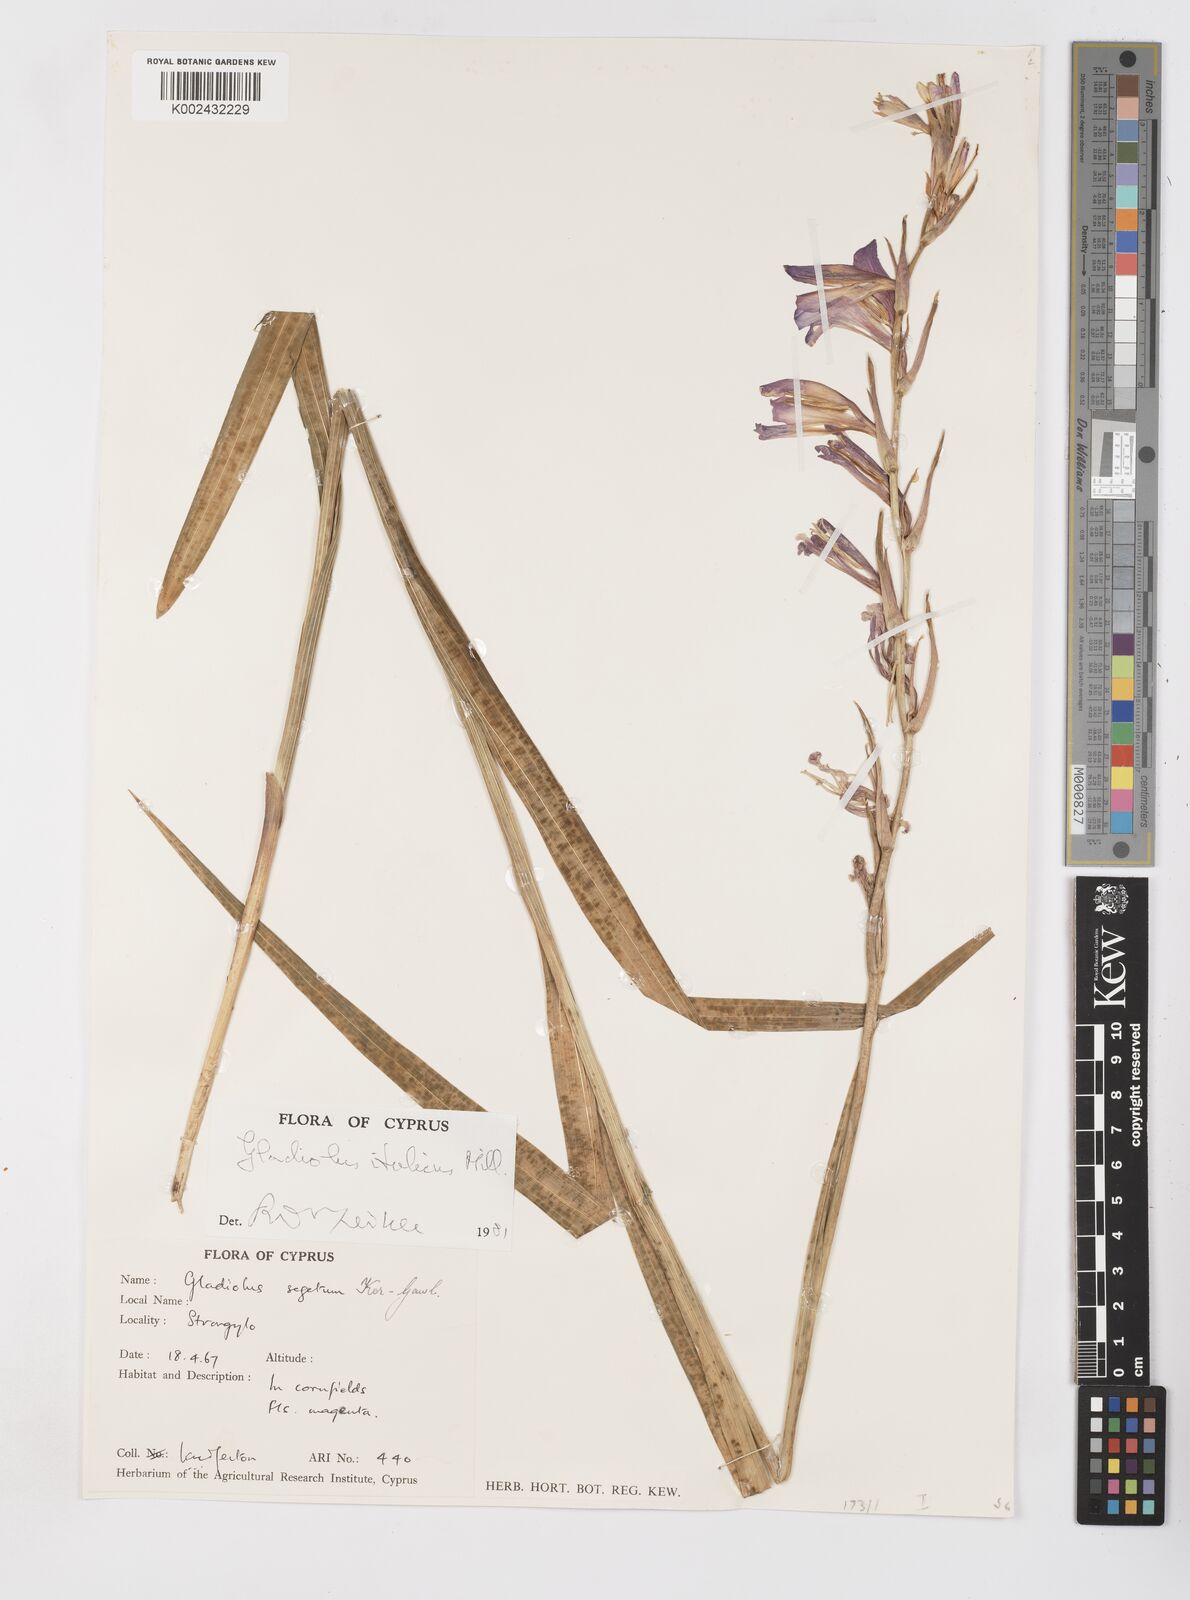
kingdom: Plantae
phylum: Tracheophyta
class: Liliopsida
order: Asparagales
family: Iridaceae
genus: Gladiolus
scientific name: Gladiolus italicus
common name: Field gladiolus
